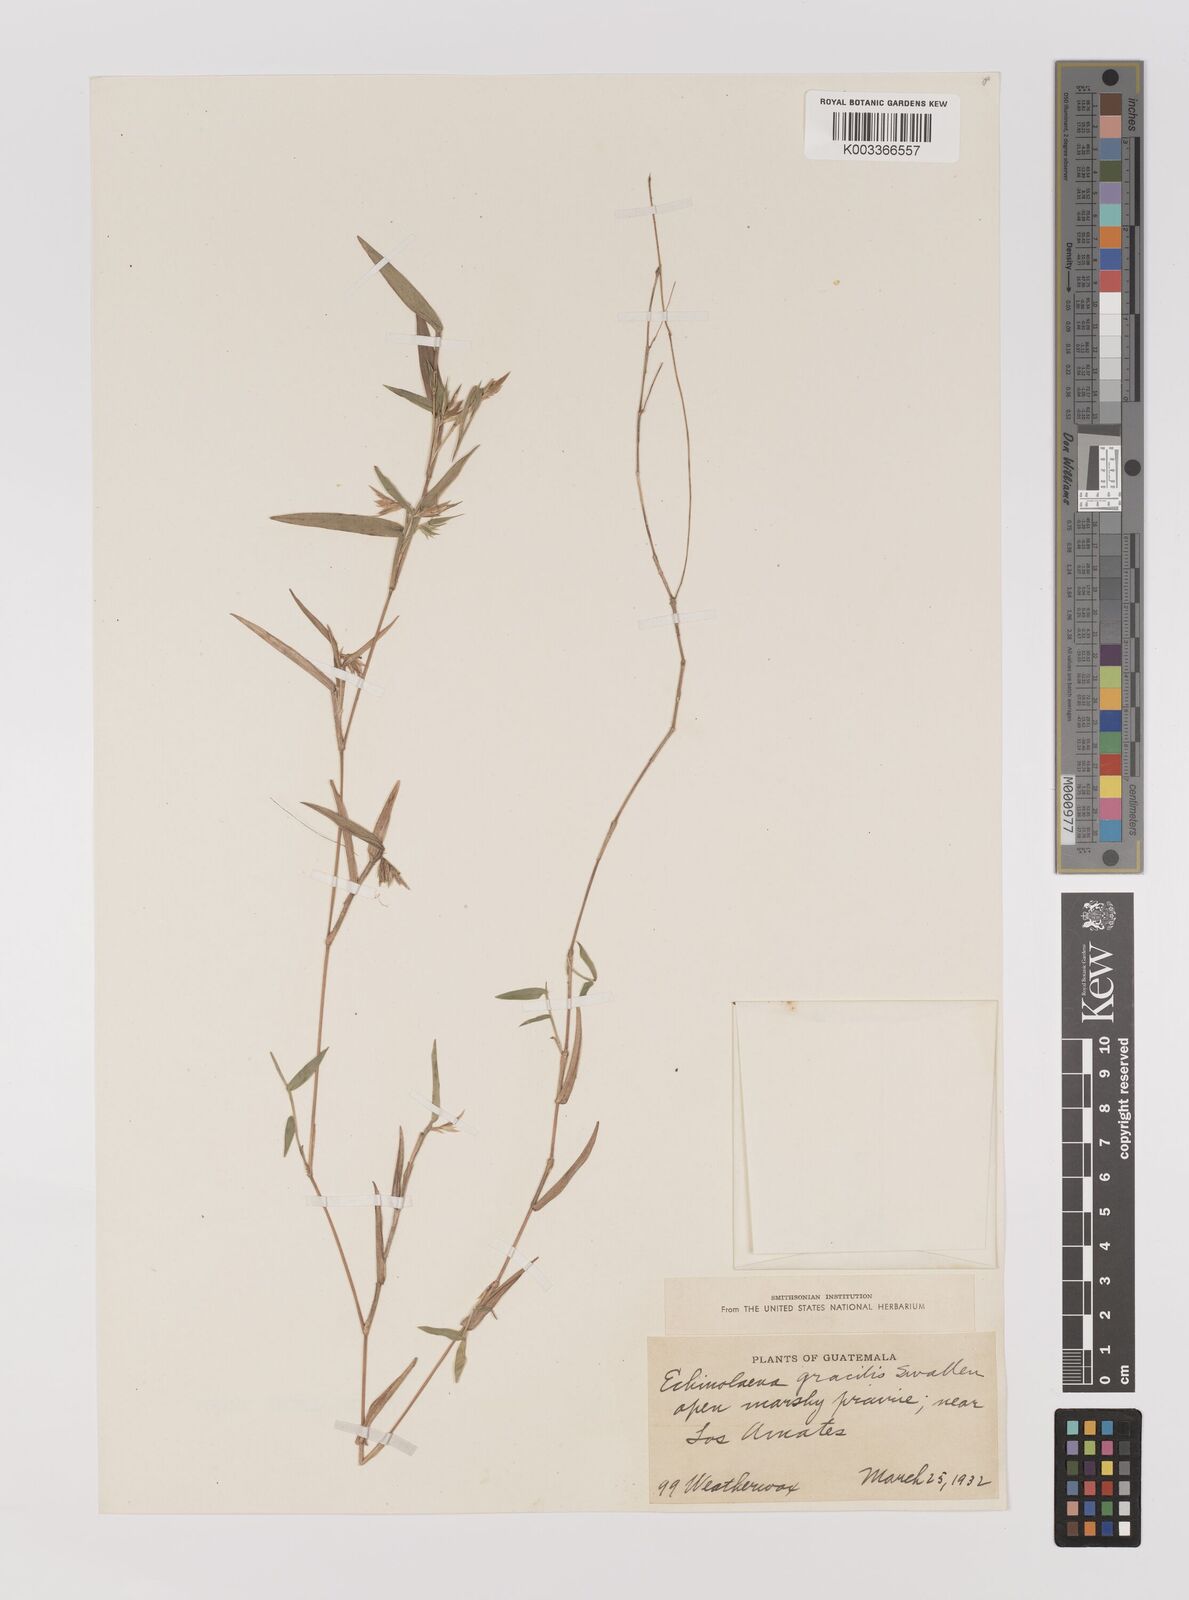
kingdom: Plantae
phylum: Tracheophyta
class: Liliopsida
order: Poales
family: Poaceae
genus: Echinolaena
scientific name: Echinolaena gracilis
